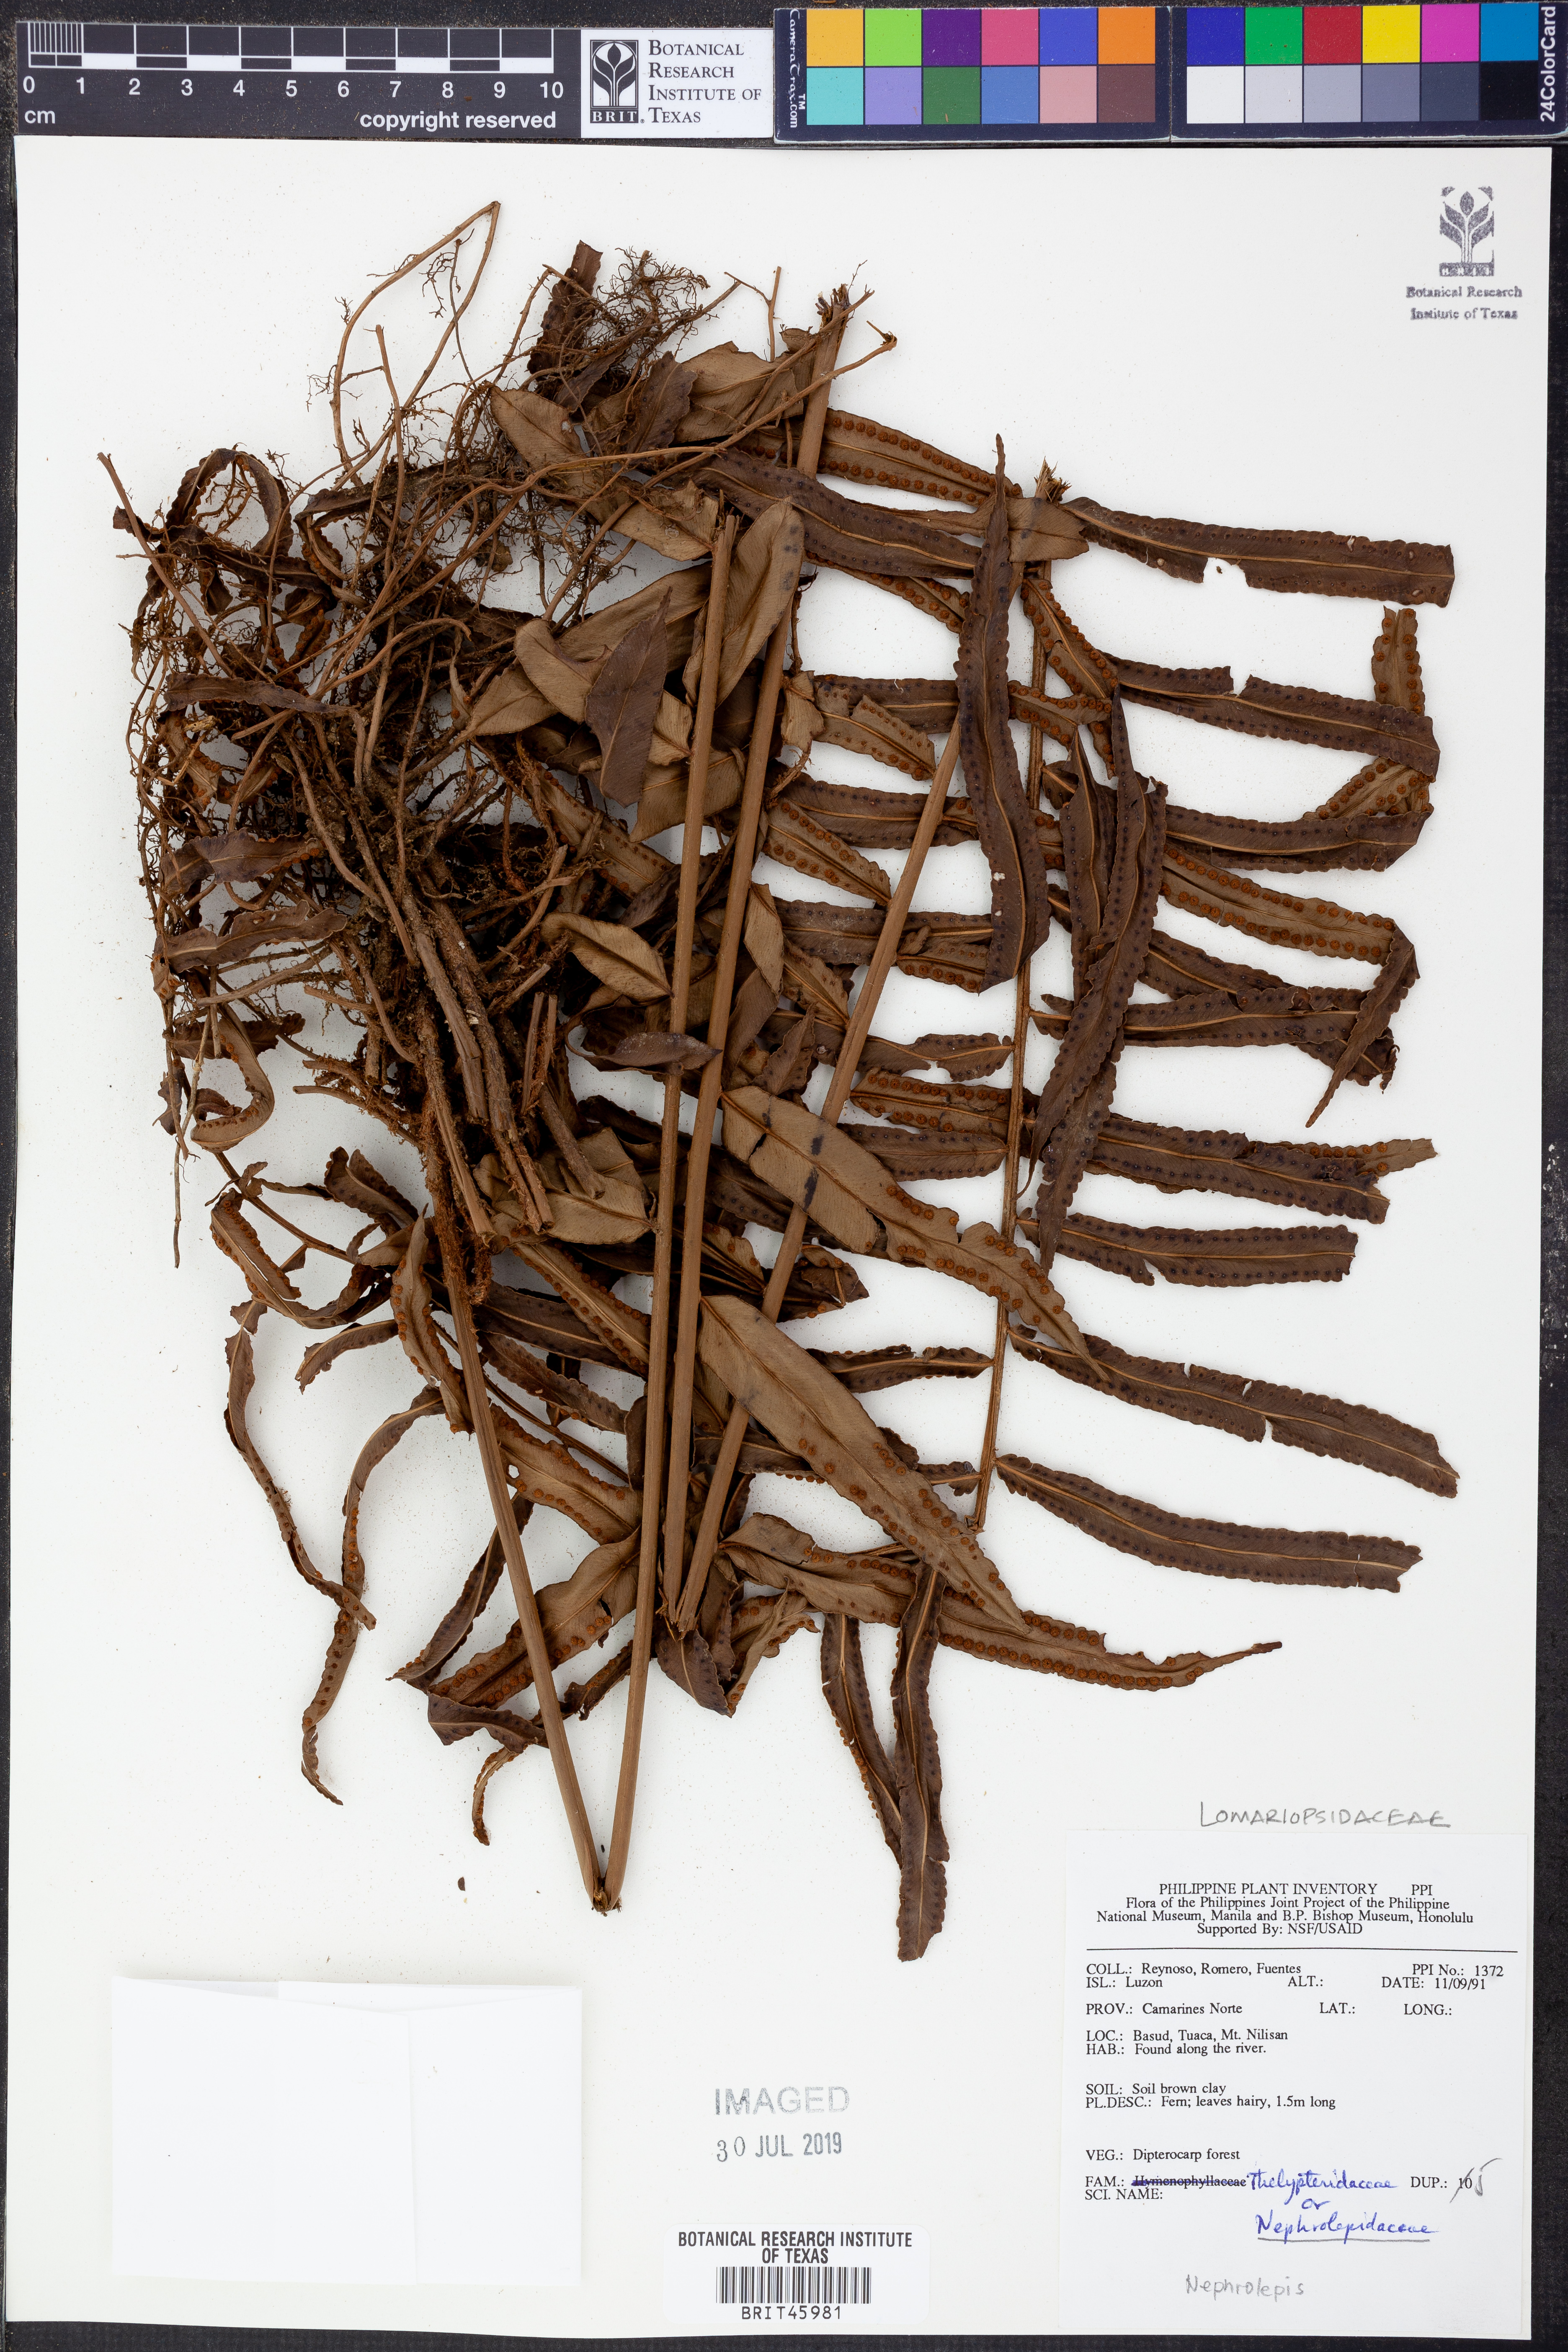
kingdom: Plantae
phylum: Tracheophyta
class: Polypodiopsida
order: Polypodiales
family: Nephrolepidaceae
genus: Nephrolepis
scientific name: Nephrolepis
